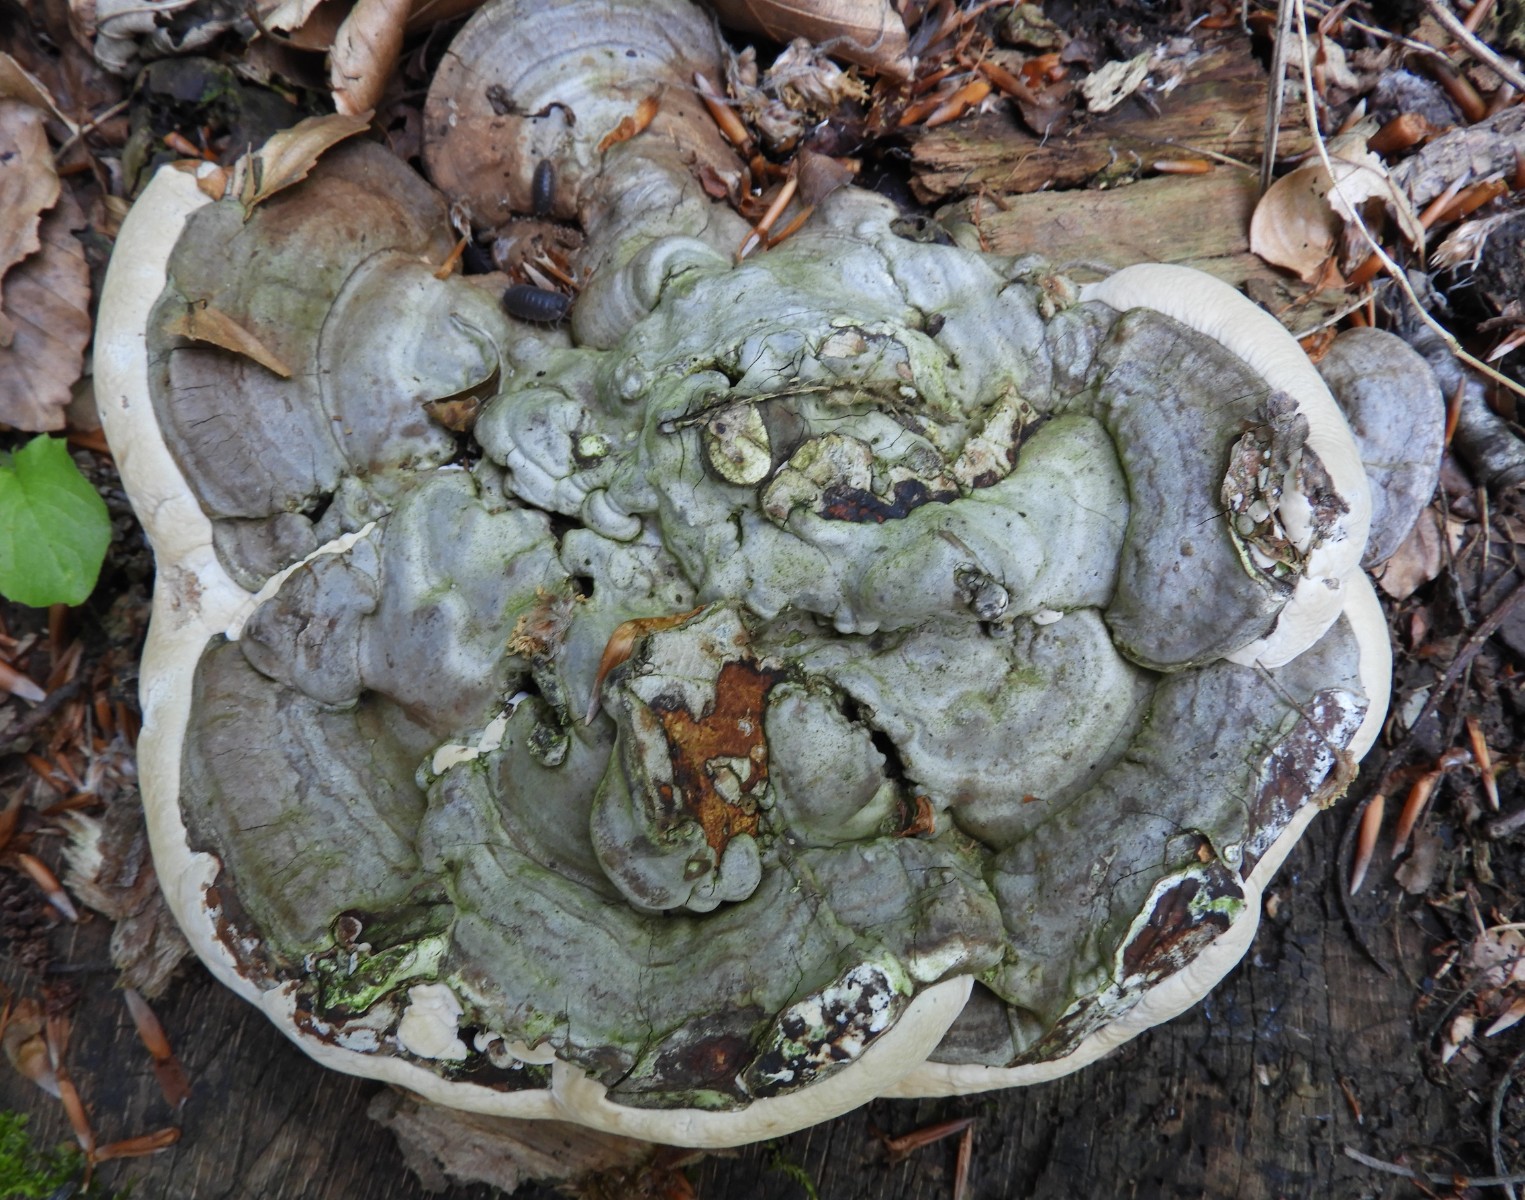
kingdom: Fungi
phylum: Basidiomycota
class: Agaricomycetes
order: Polyporales
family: Polyporaceae
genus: Ganoderma
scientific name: Ganoderma applanatum
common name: flad lakporesvamp
